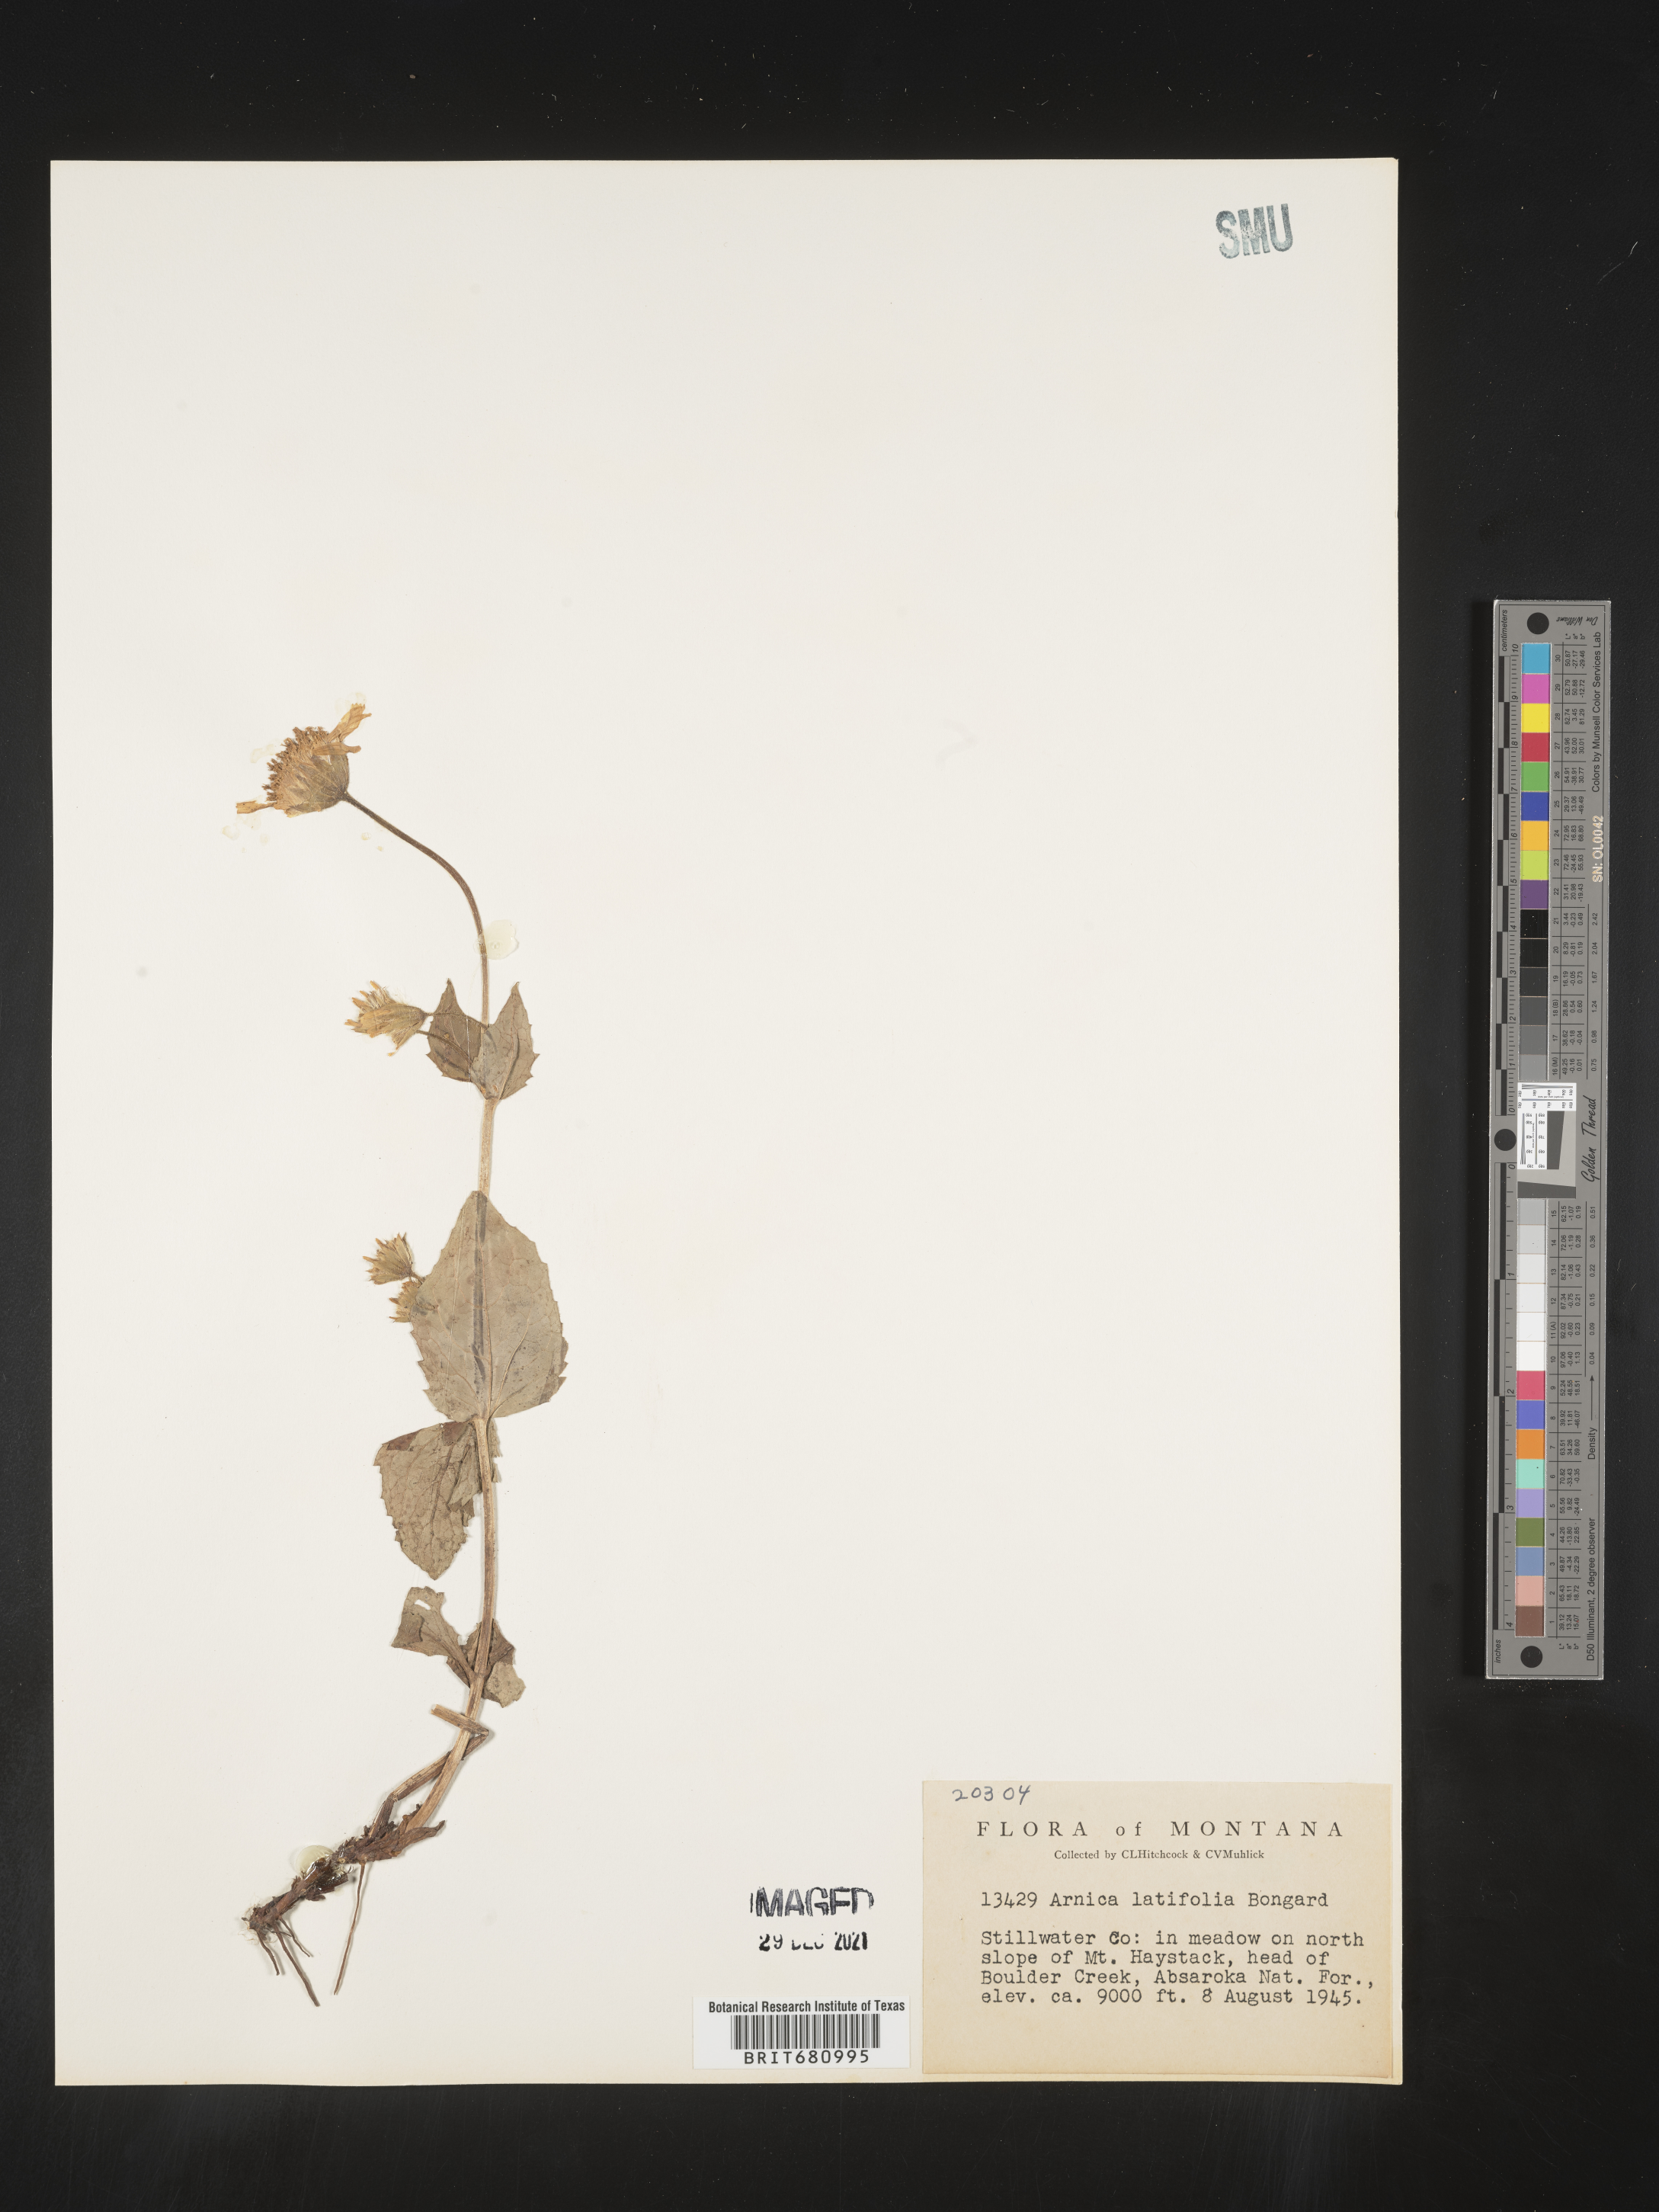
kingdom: Plantae
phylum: Tracheophyta
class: Magnoliopsida
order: Asterales
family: Asteraceae
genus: Arnica
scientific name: Arnica latifolia
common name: Arnica
